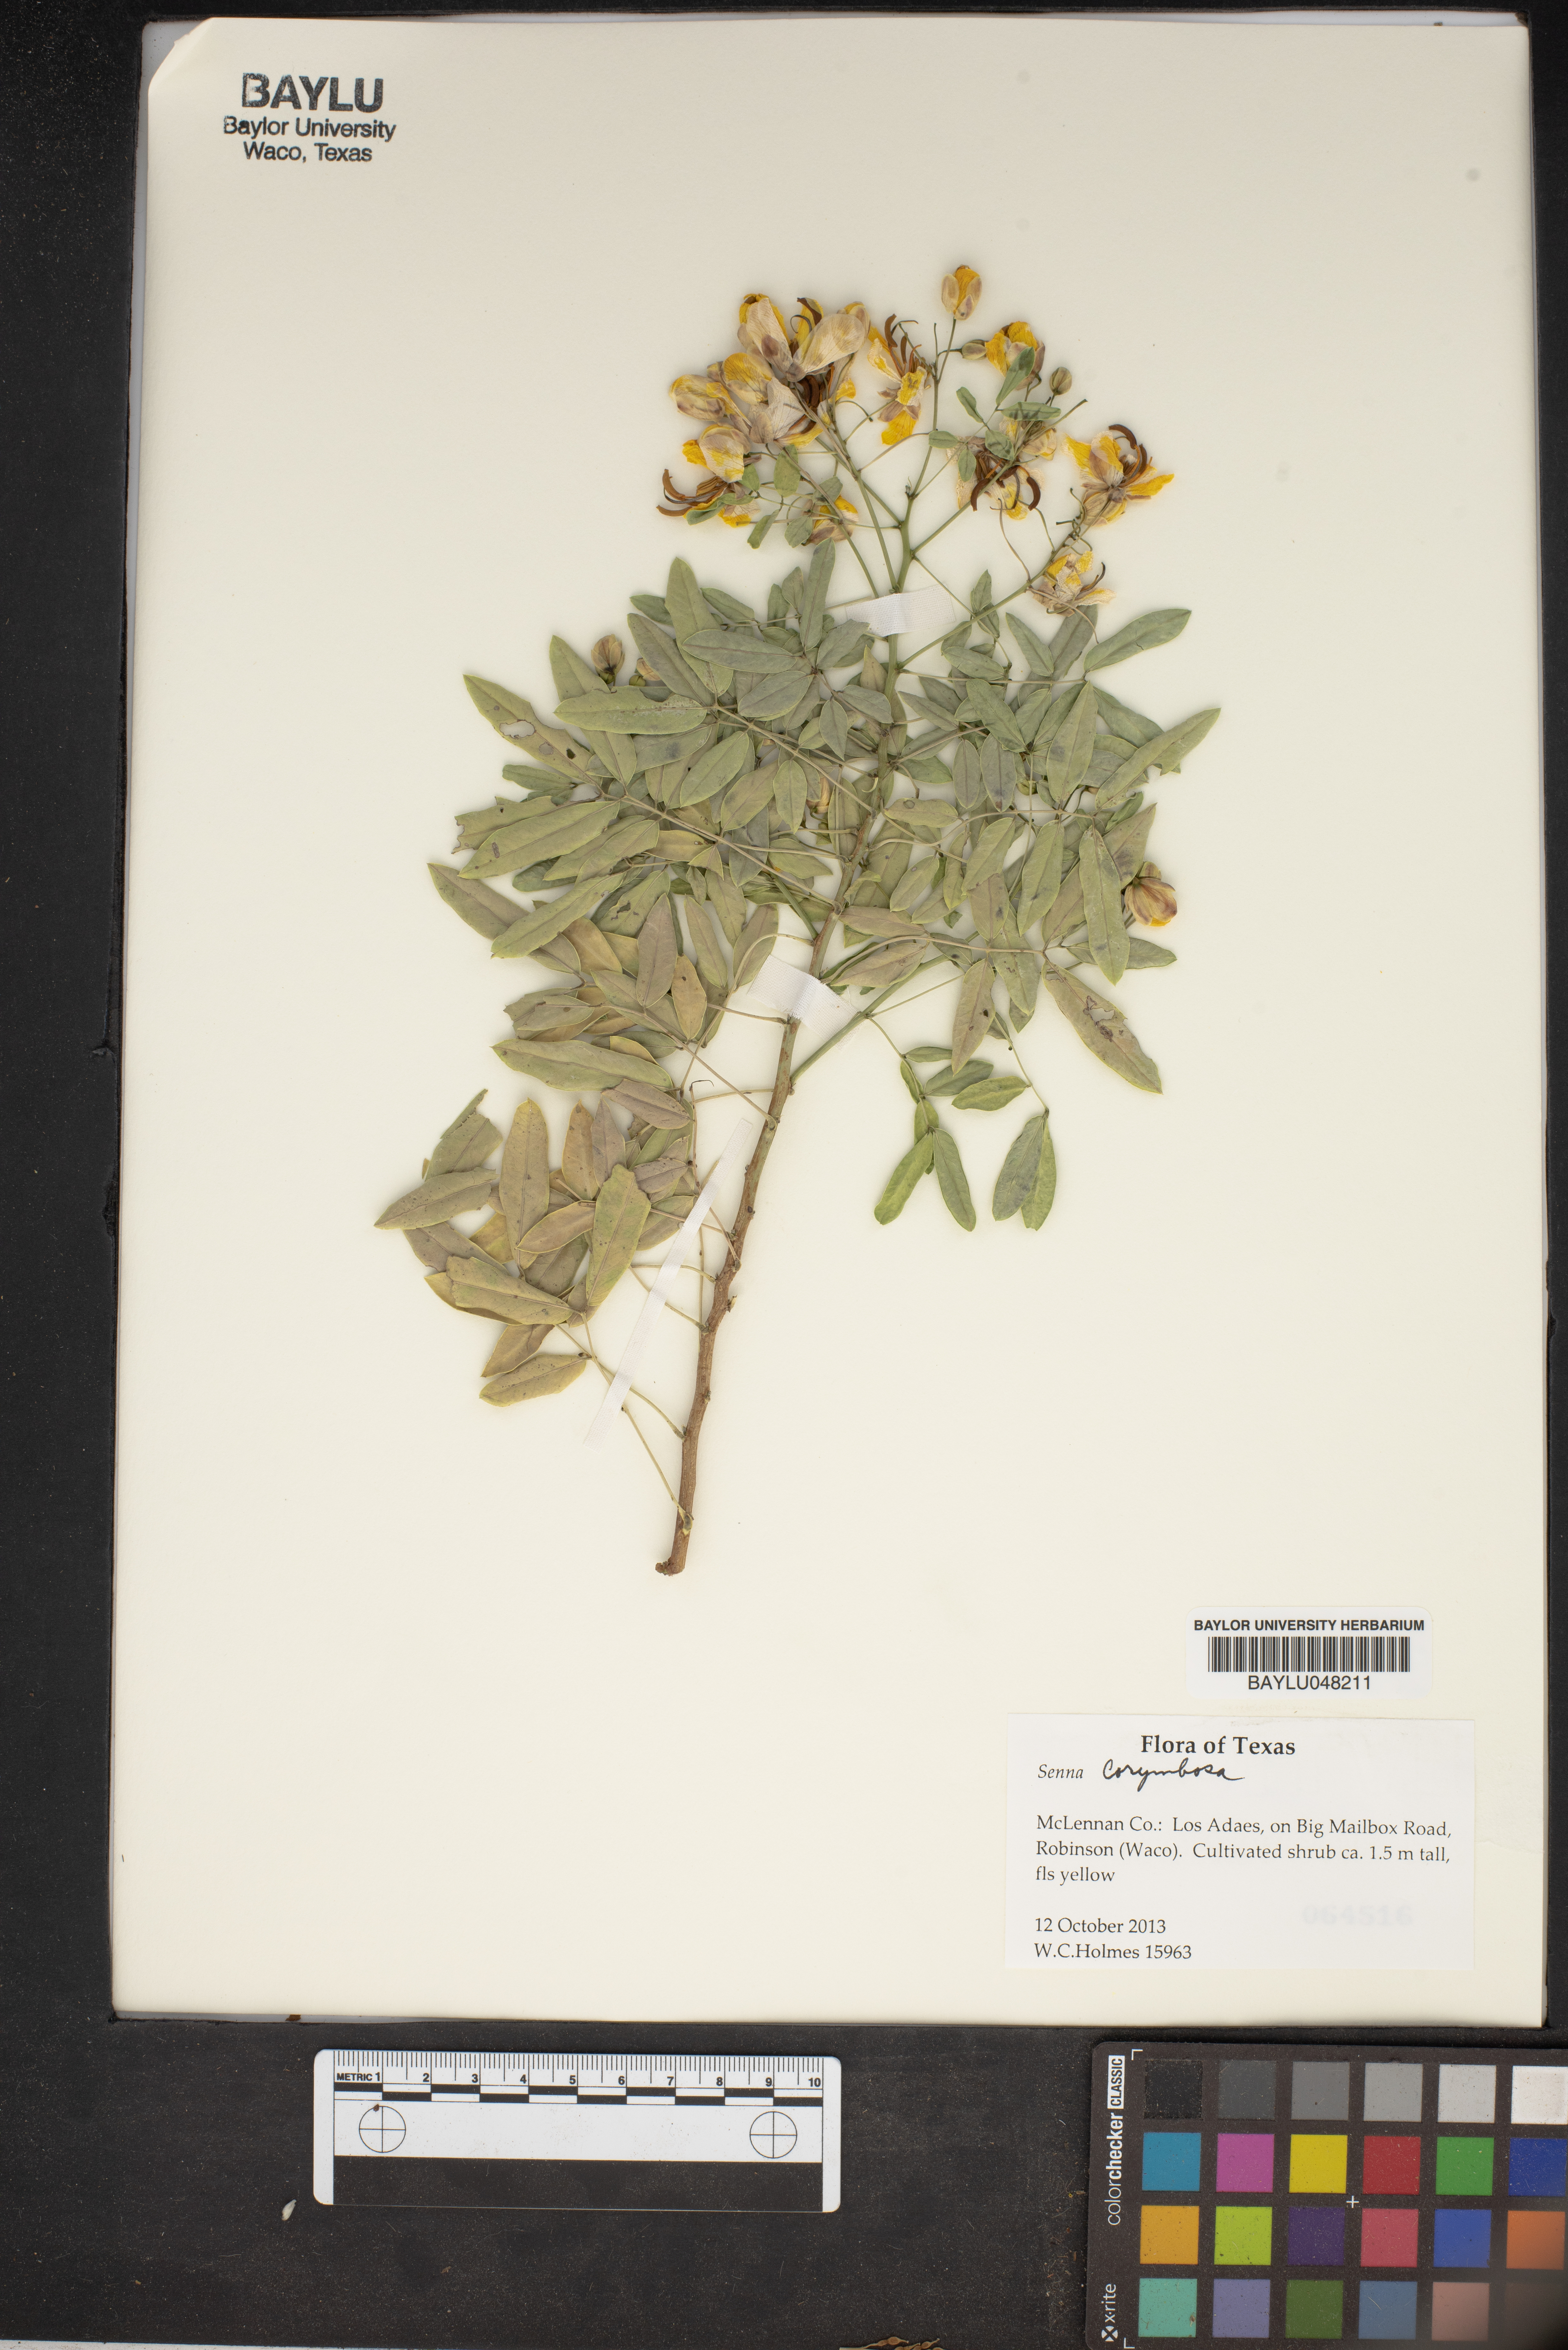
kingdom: Plantae
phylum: Tracheophyta
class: Magnoliopsida
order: Fabales
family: Fabaceae
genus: Senna
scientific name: Senna corymbosa
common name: Argentine senna
